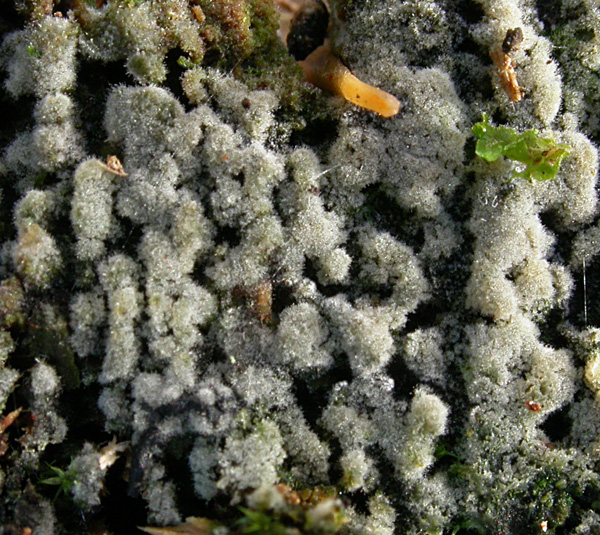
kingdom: Fungi
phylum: Basidiomycota
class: Agaricomycetes
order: Jaapiales
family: Jaapiaceae
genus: Jaapia
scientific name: Jaapia ochroleuca
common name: blegokker sumpspind
